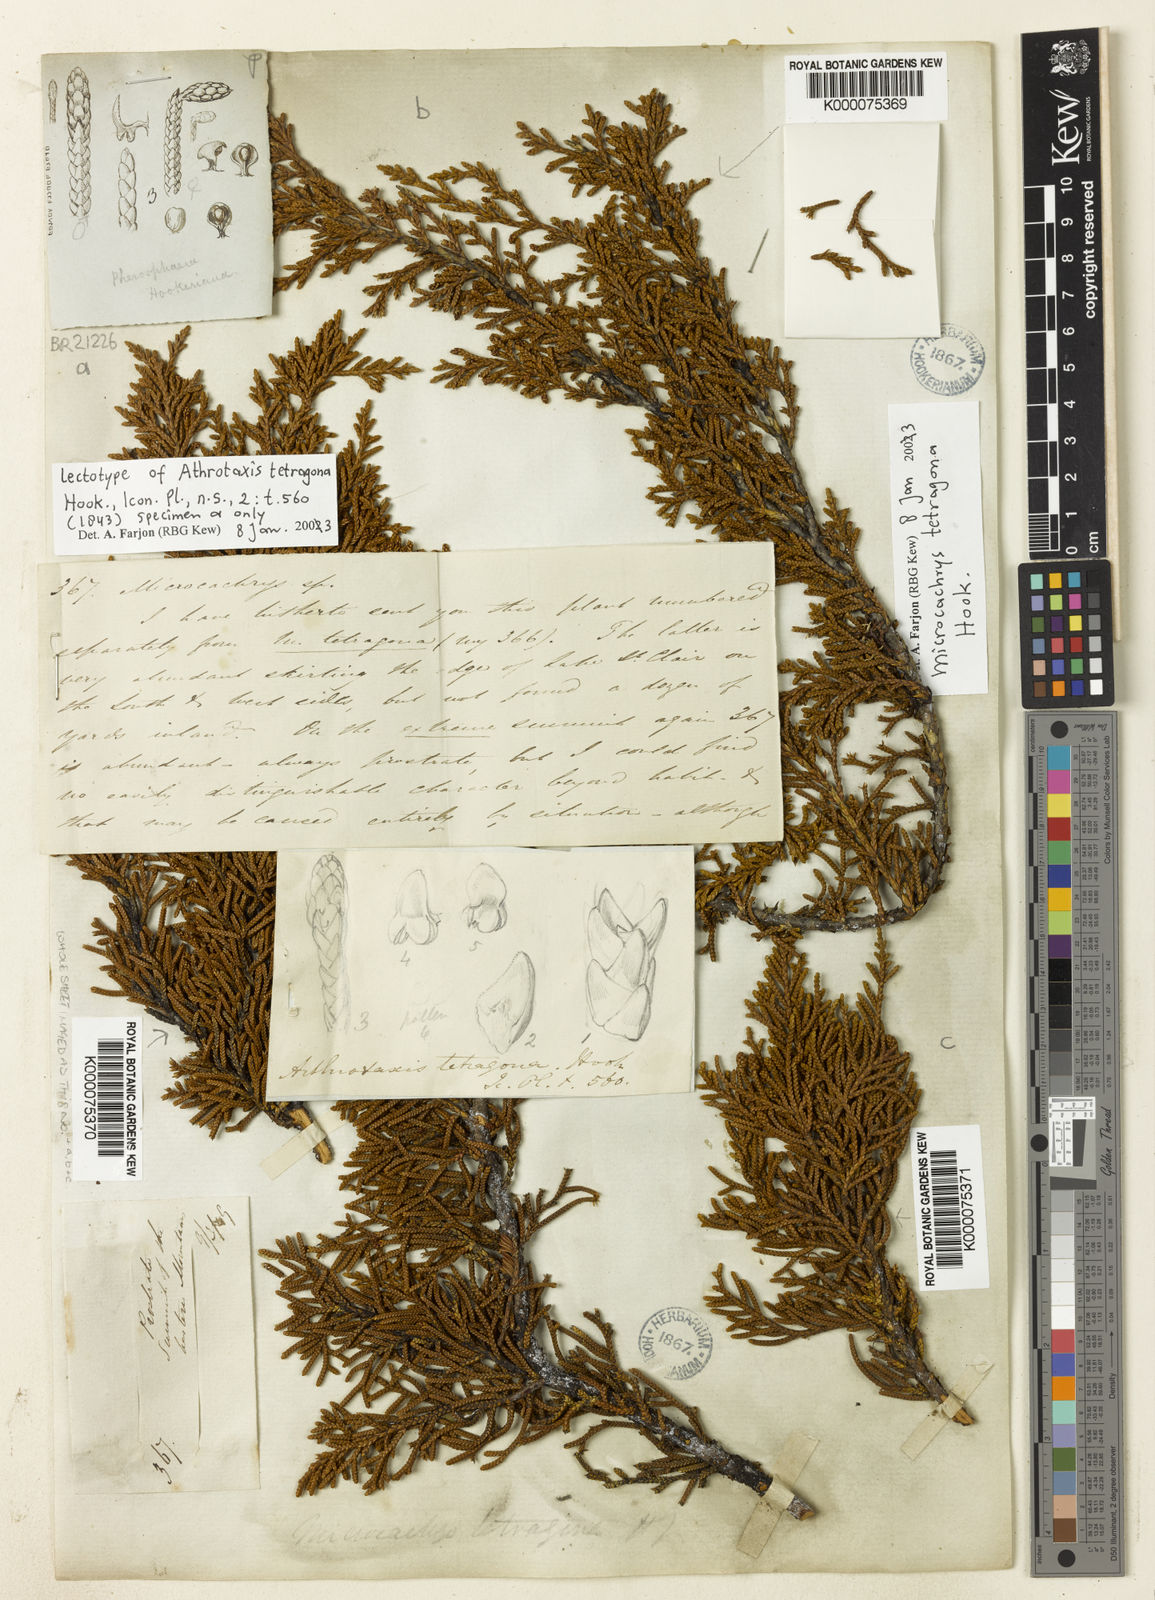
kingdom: Plantae
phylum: Tracheophyta
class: Pinopsida
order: Pinales
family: Podocarpaceae
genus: Microcachrys
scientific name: Microcachrys tetragona
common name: Creeping pine
